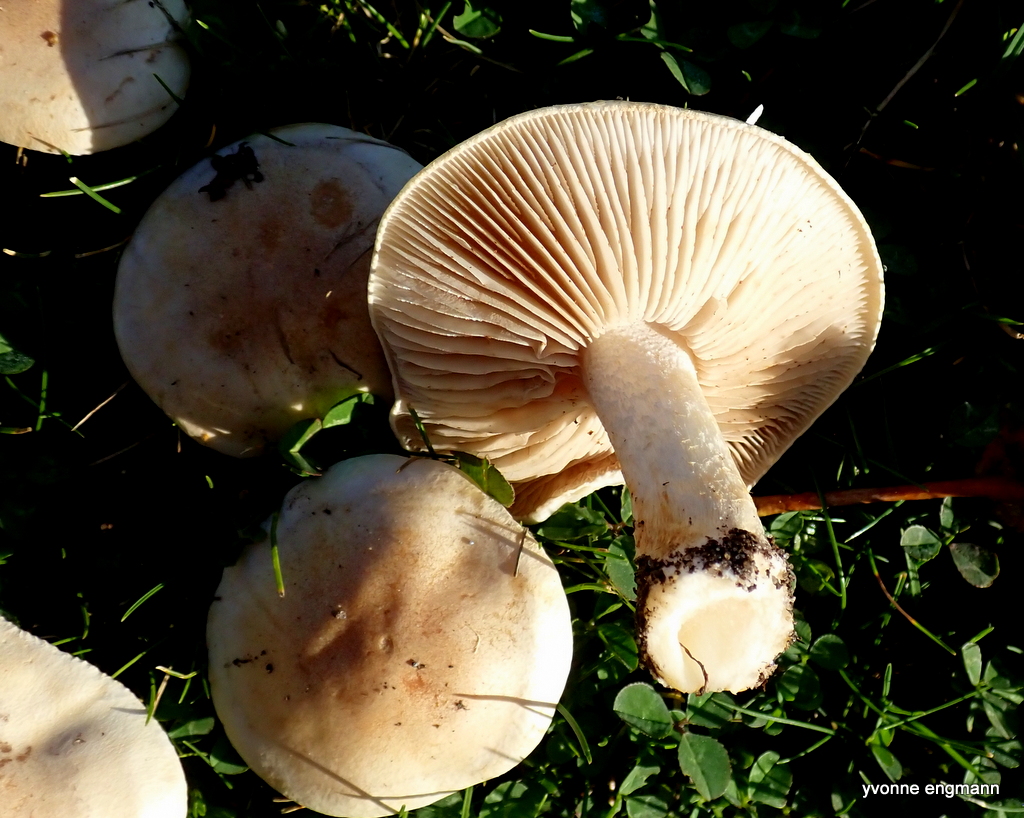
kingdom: Fungi
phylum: Basidiomycota
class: Agaricomycetes
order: Agaricales
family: Hymenogastraceae
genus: Hebeloma
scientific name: Hebeloma
